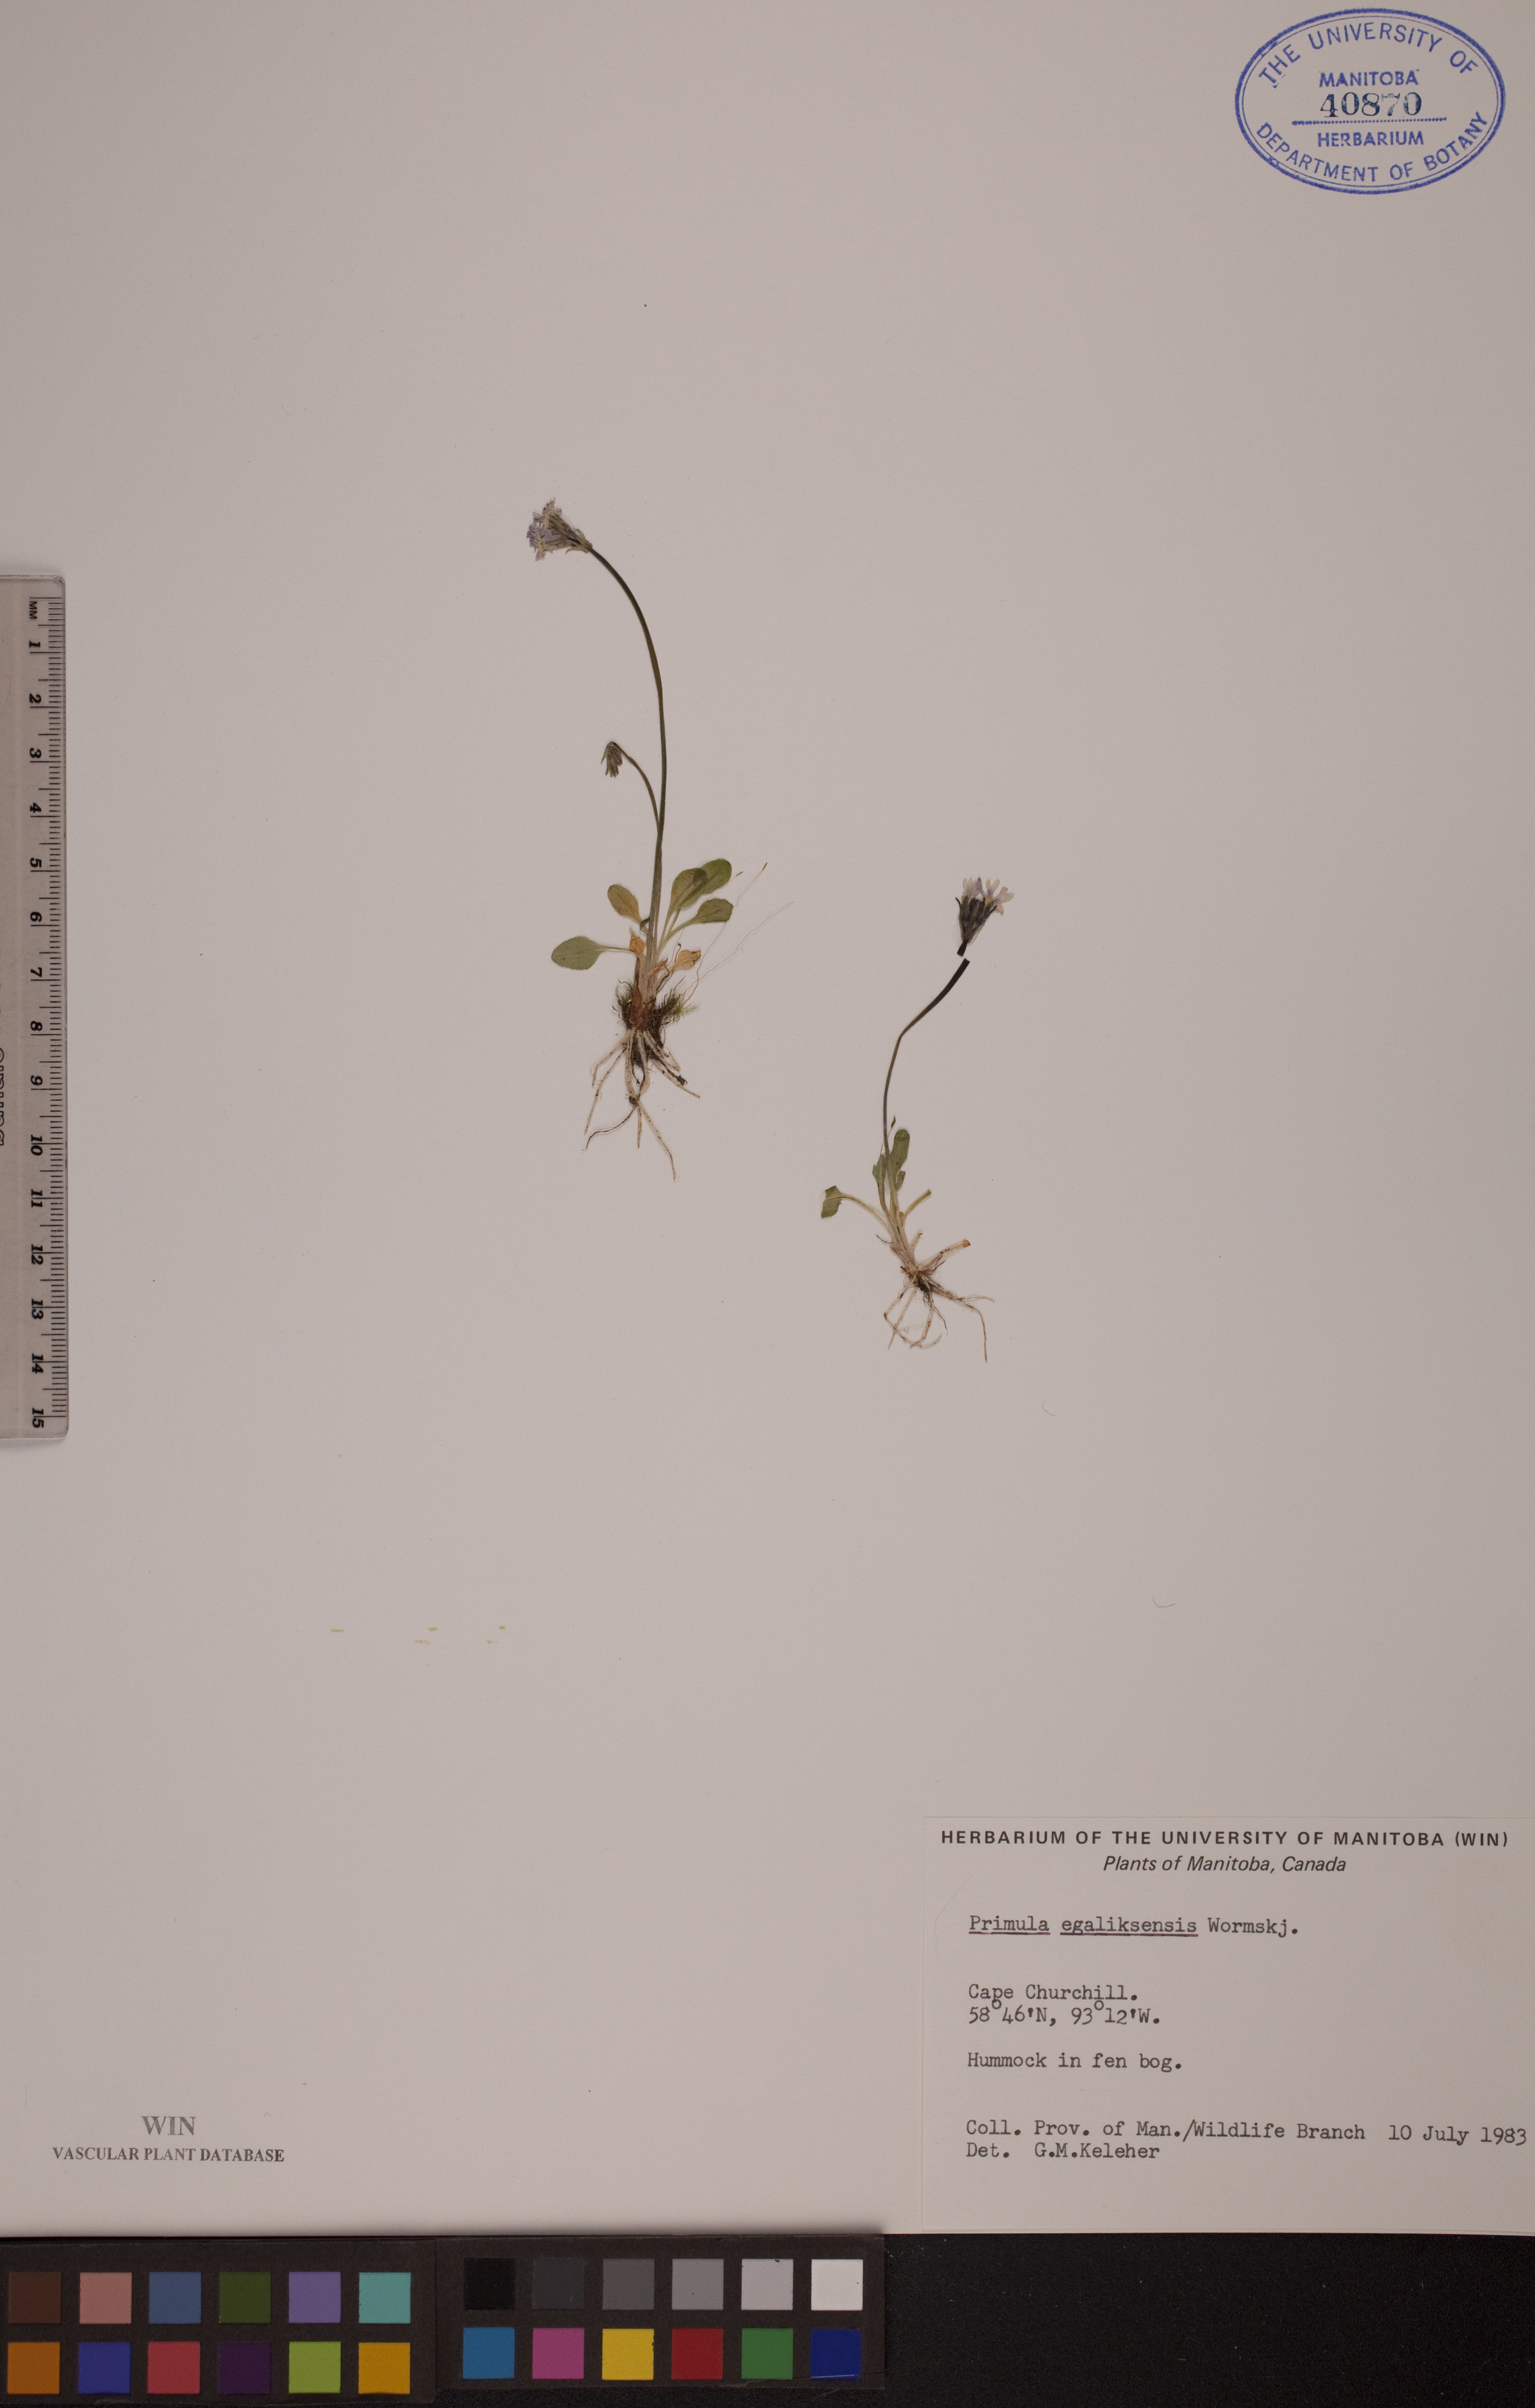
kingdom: Plantae
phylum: Tracheophyta
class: Magnoliopsida
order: Ericales
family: Primulaceae
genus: Primula
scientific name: Primula egaliksensis
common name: Greenland primrose
